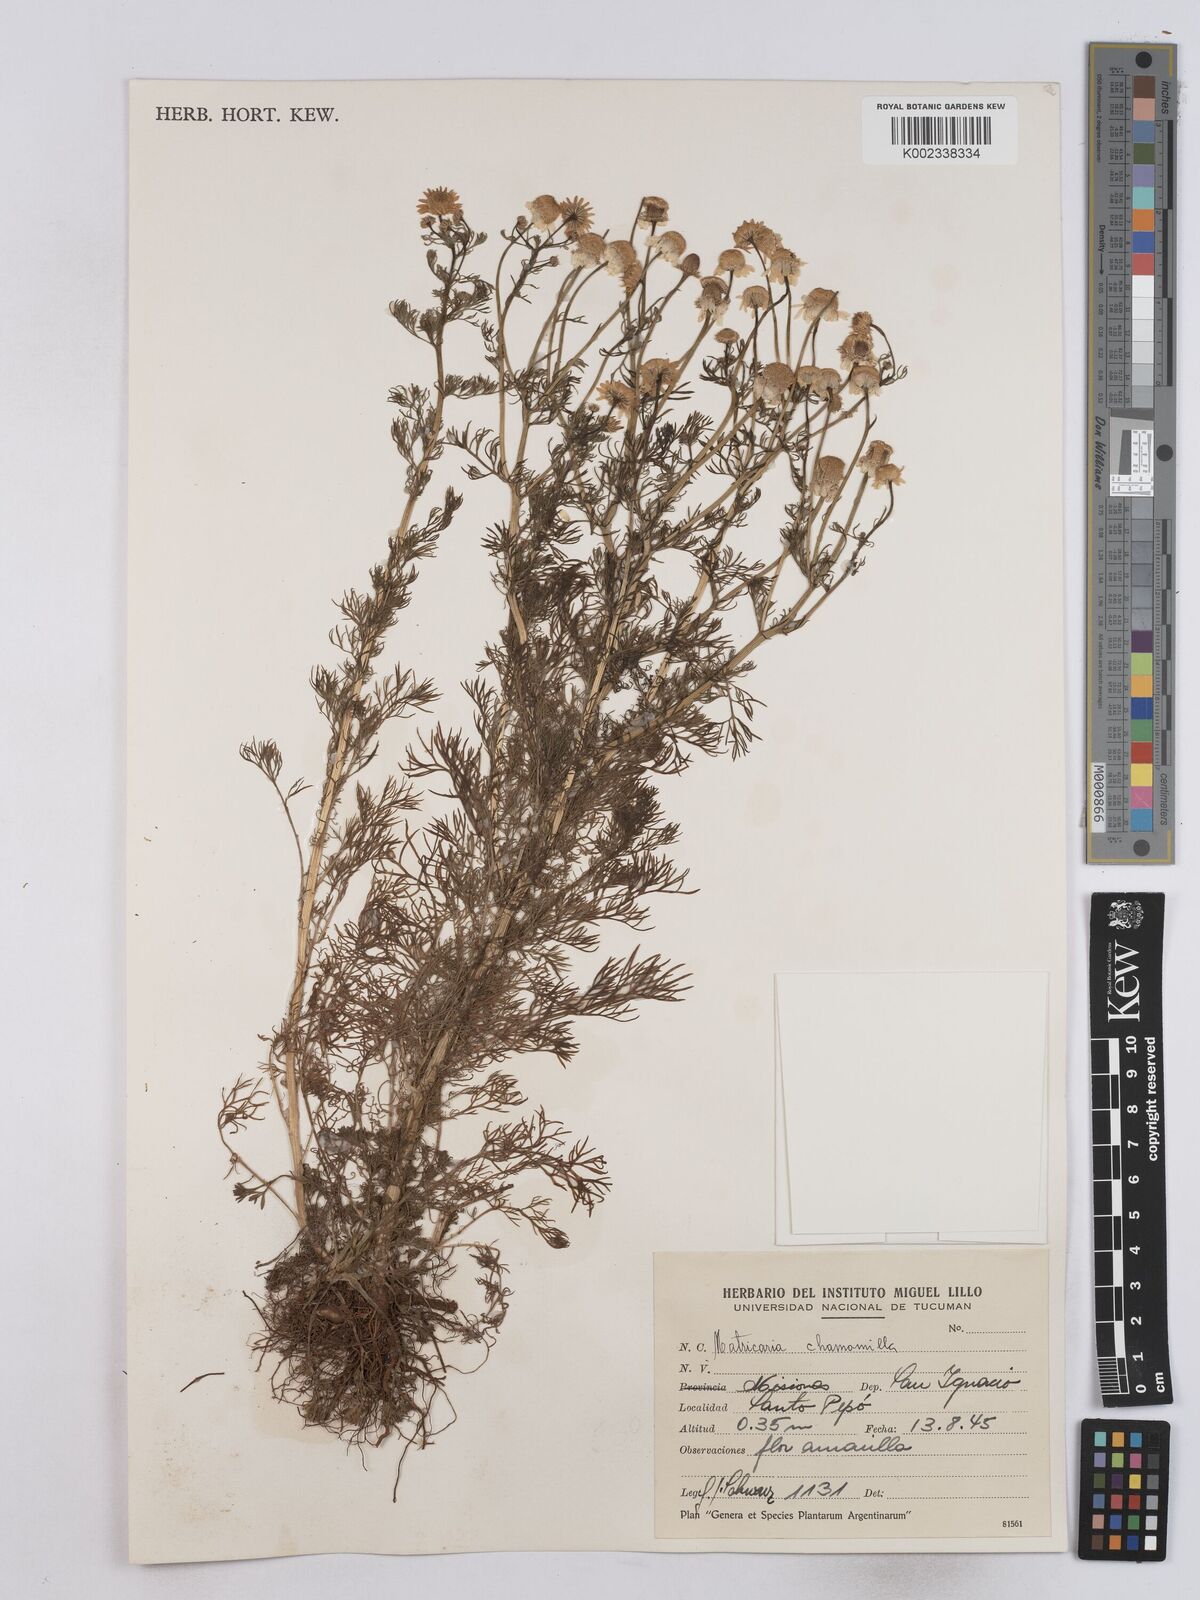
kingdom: Plantae
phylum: Tracheophyta
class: Magnoliopsida
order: Asterales
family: Asteraceae
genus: Matricaria
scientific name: Matricaria chamomilla
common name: Scented mayweed
